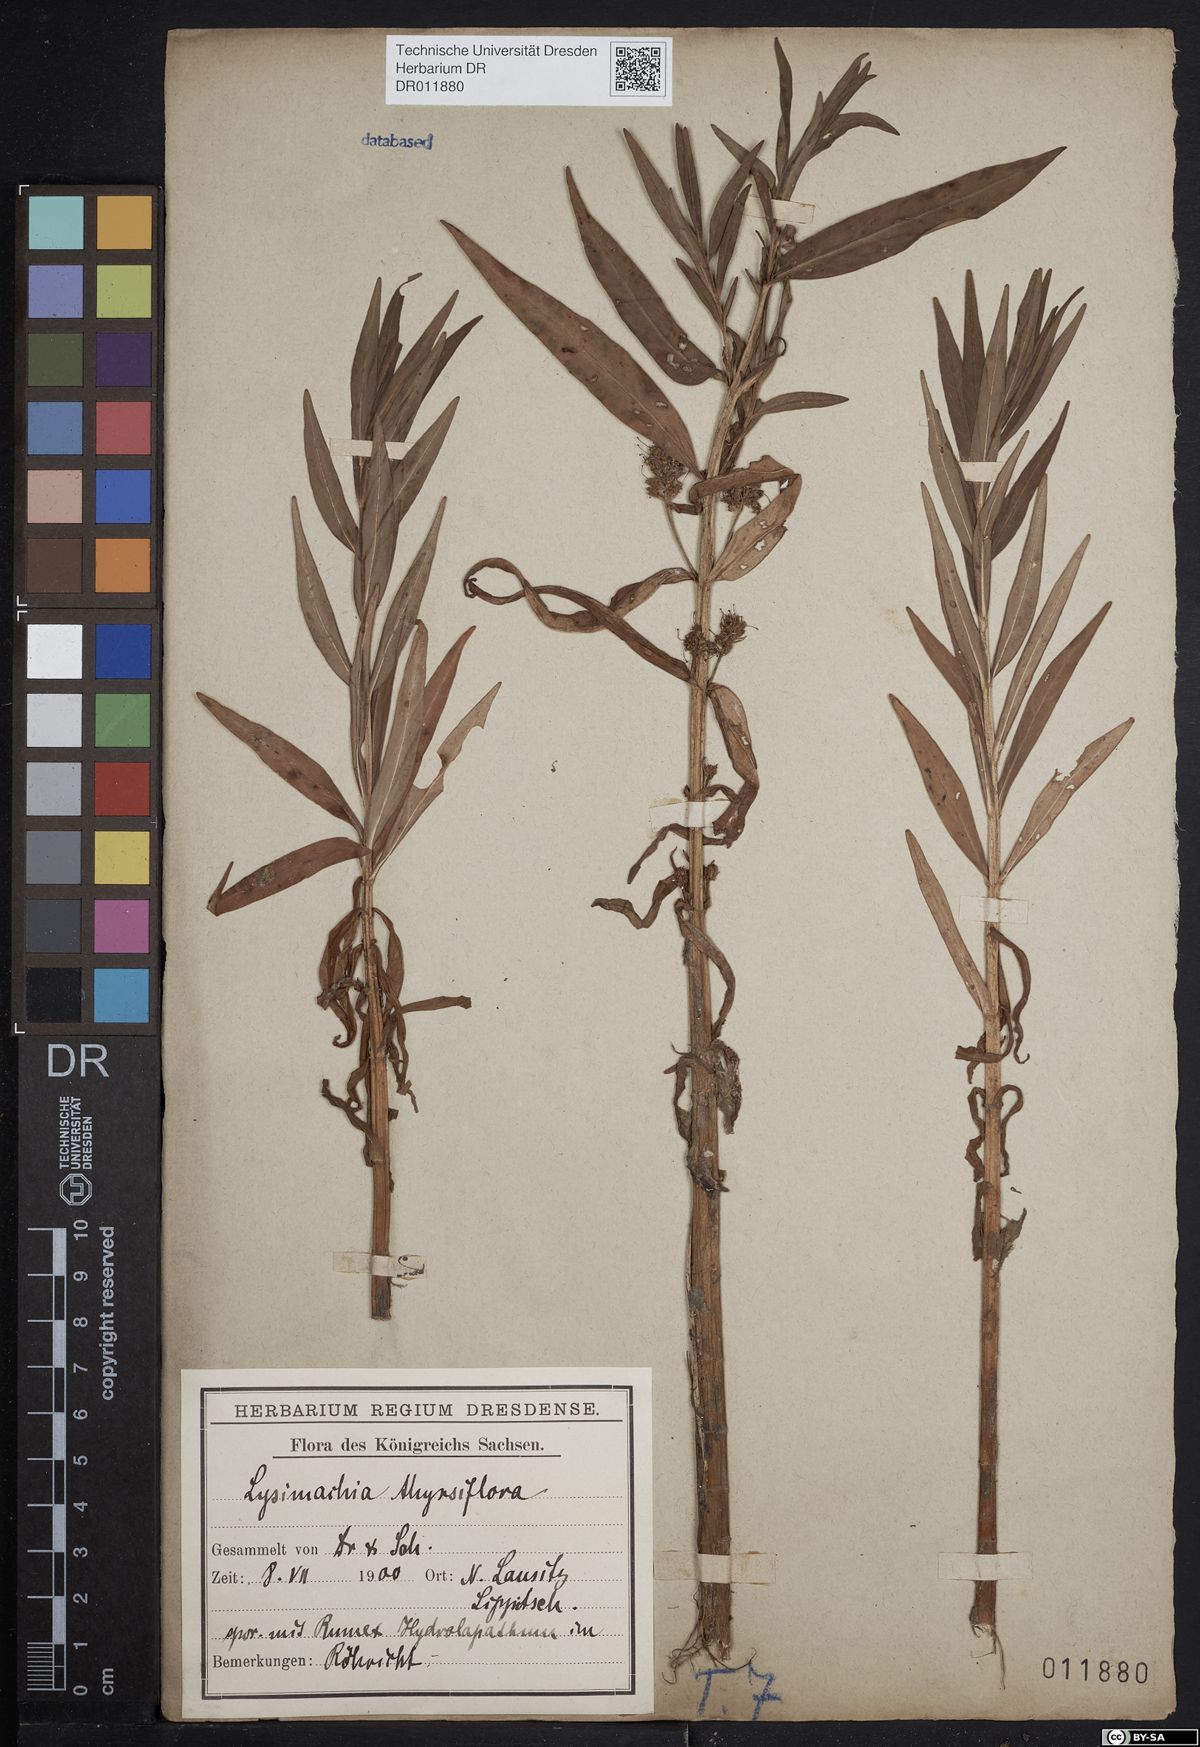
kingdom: Plantae
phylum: Tracheophyta
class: Magnoliopsida
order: Ericales
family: Primulaceae
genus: Lysimachia
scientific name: Lysimachia thyrsiflora
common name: Tufted loosestrife
